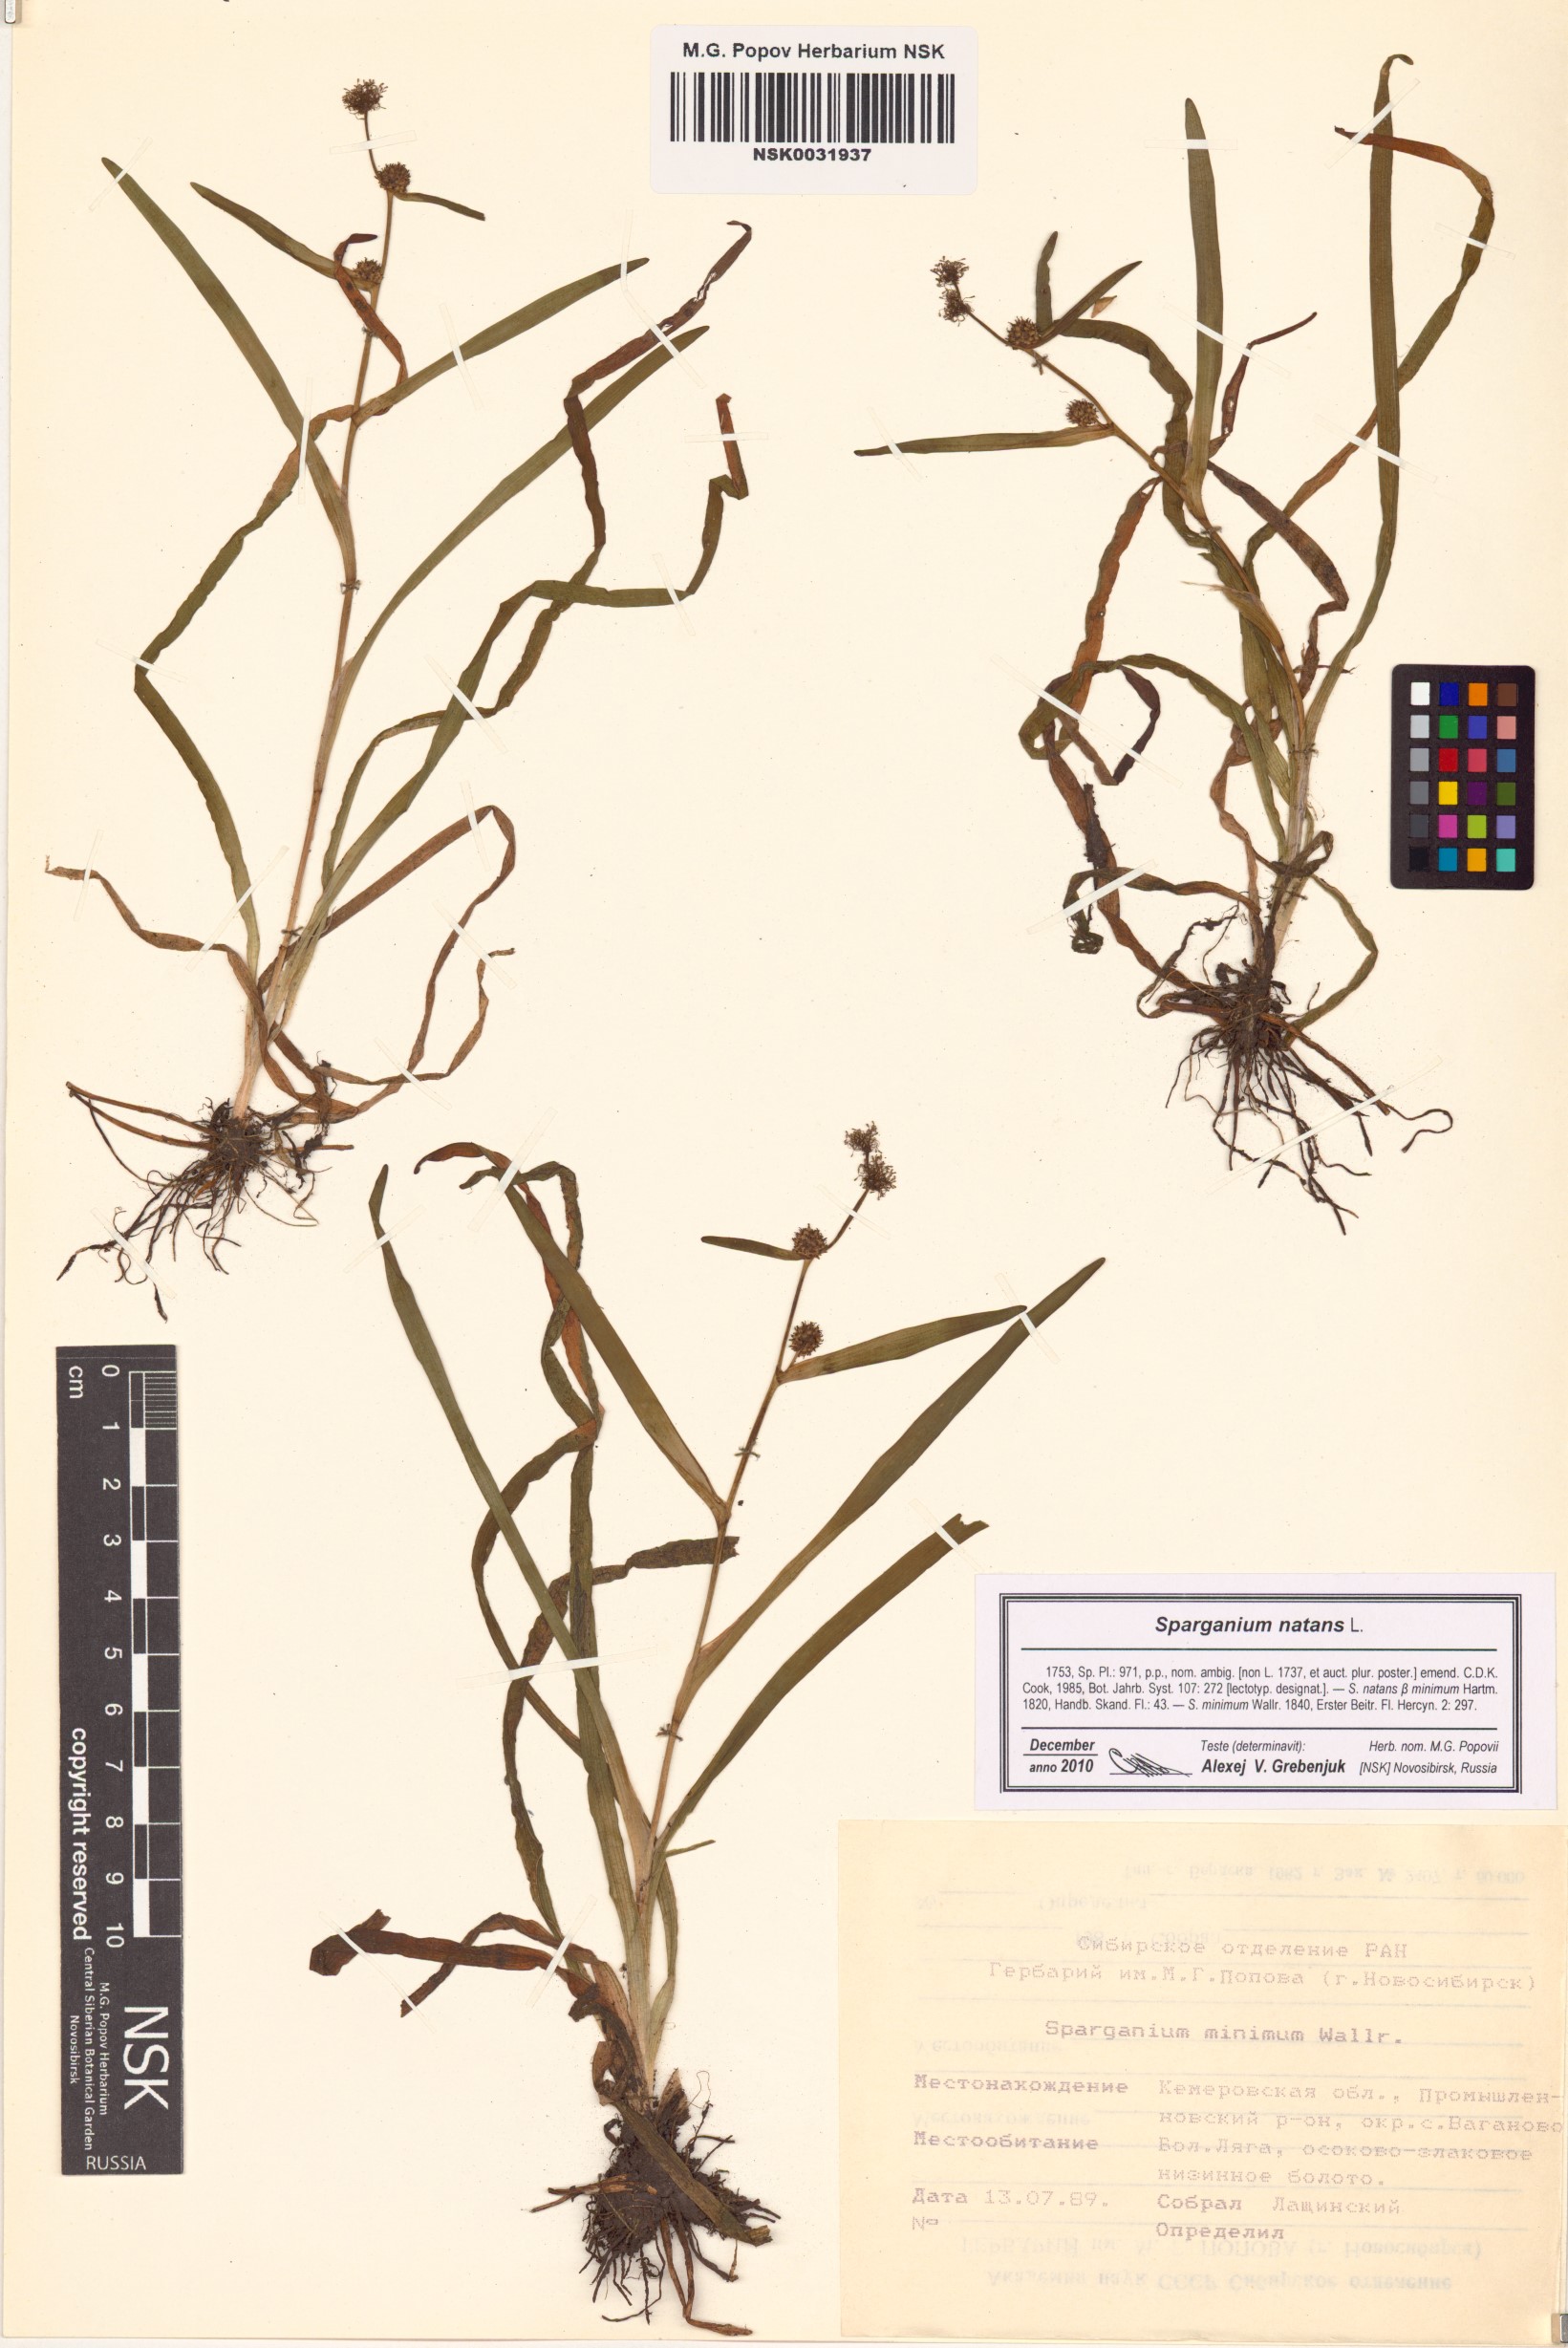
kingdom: Plantae
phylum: Tracheophyta
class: Liliopsida
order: Poales
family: Typhaceae
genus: Sparganium
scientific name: Sparganium natans
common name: Least bur-reed
